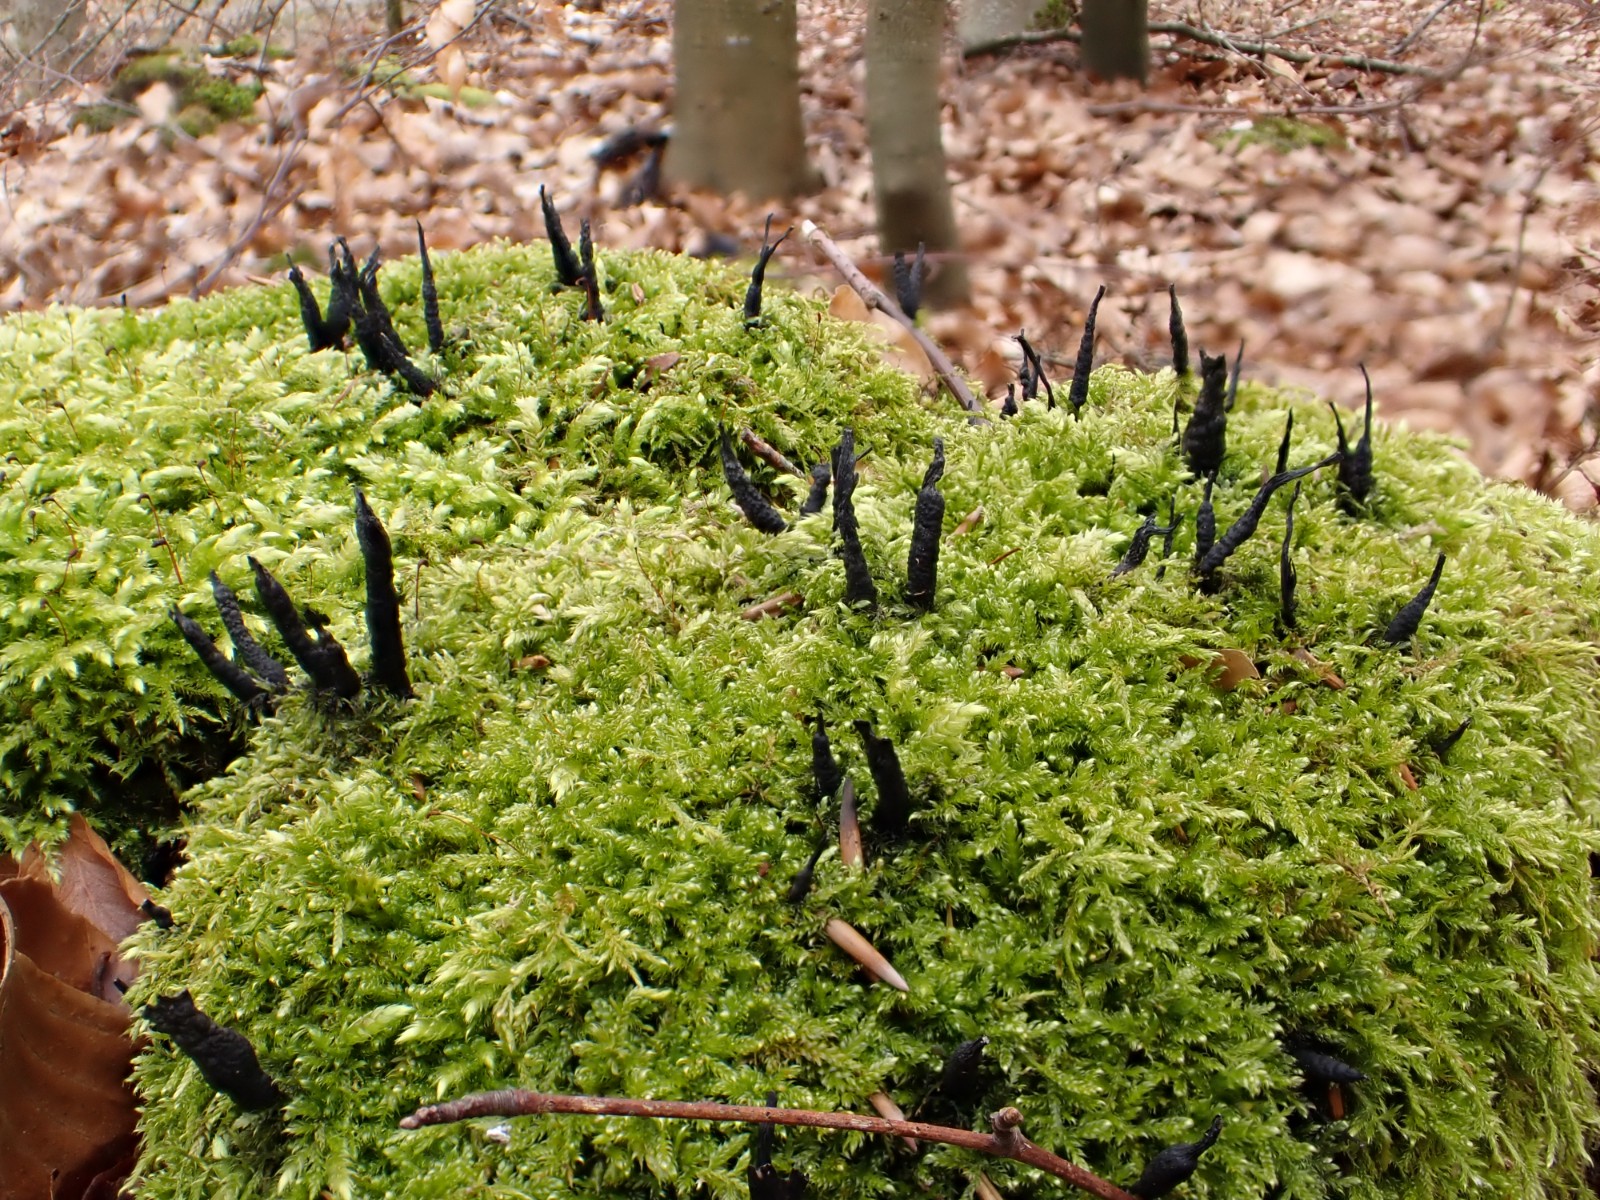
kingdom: Fungi
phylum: Ascomycota
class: Sordariomycetes
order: Xylariales
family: Xylariaceae
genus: Xylaria
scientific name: Xylaria hypoxylon
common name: grenet stødsvamp
